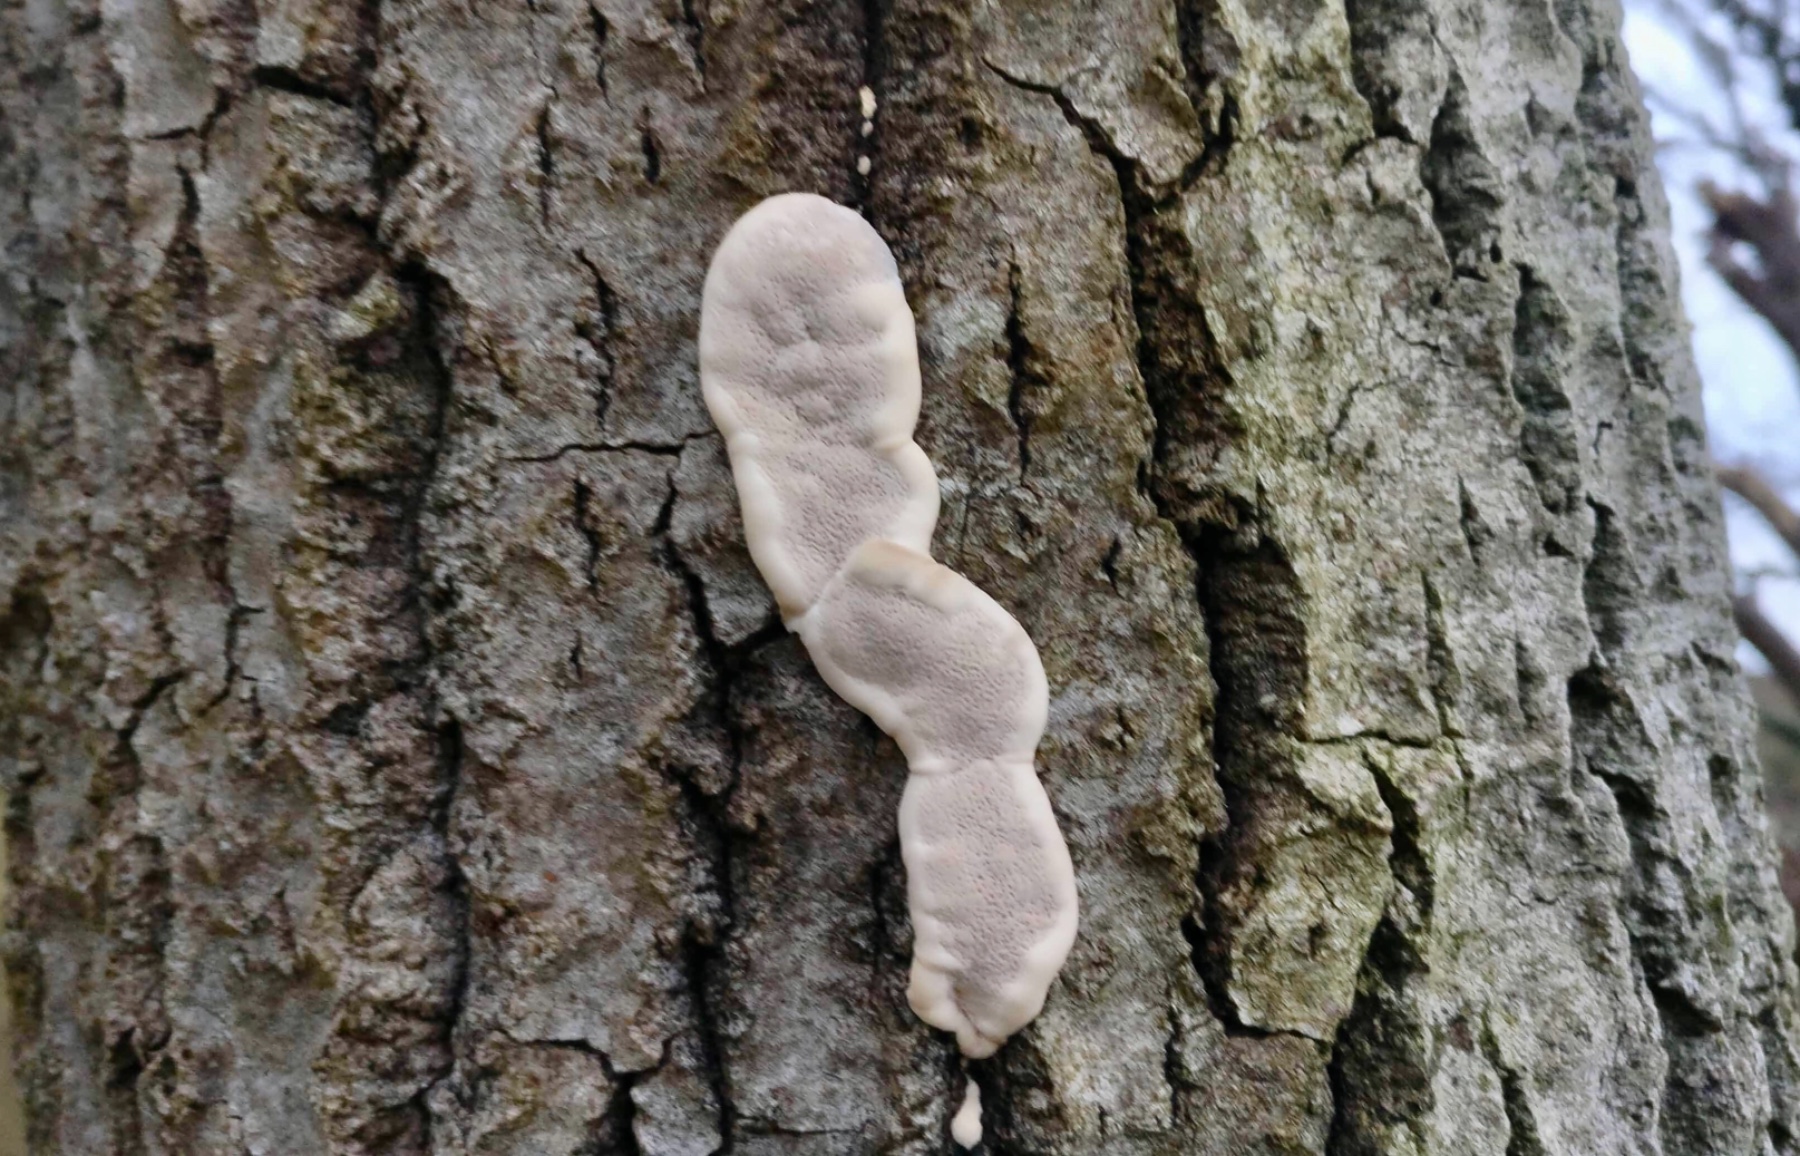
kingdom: Fungi
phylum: Basidiomycota
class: Agaricomycetes
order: Polyporales
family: Phanerochaetaceae
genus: Bjerkandera
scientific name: Bjerkandera adusta
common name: sveden sodporesvamp
